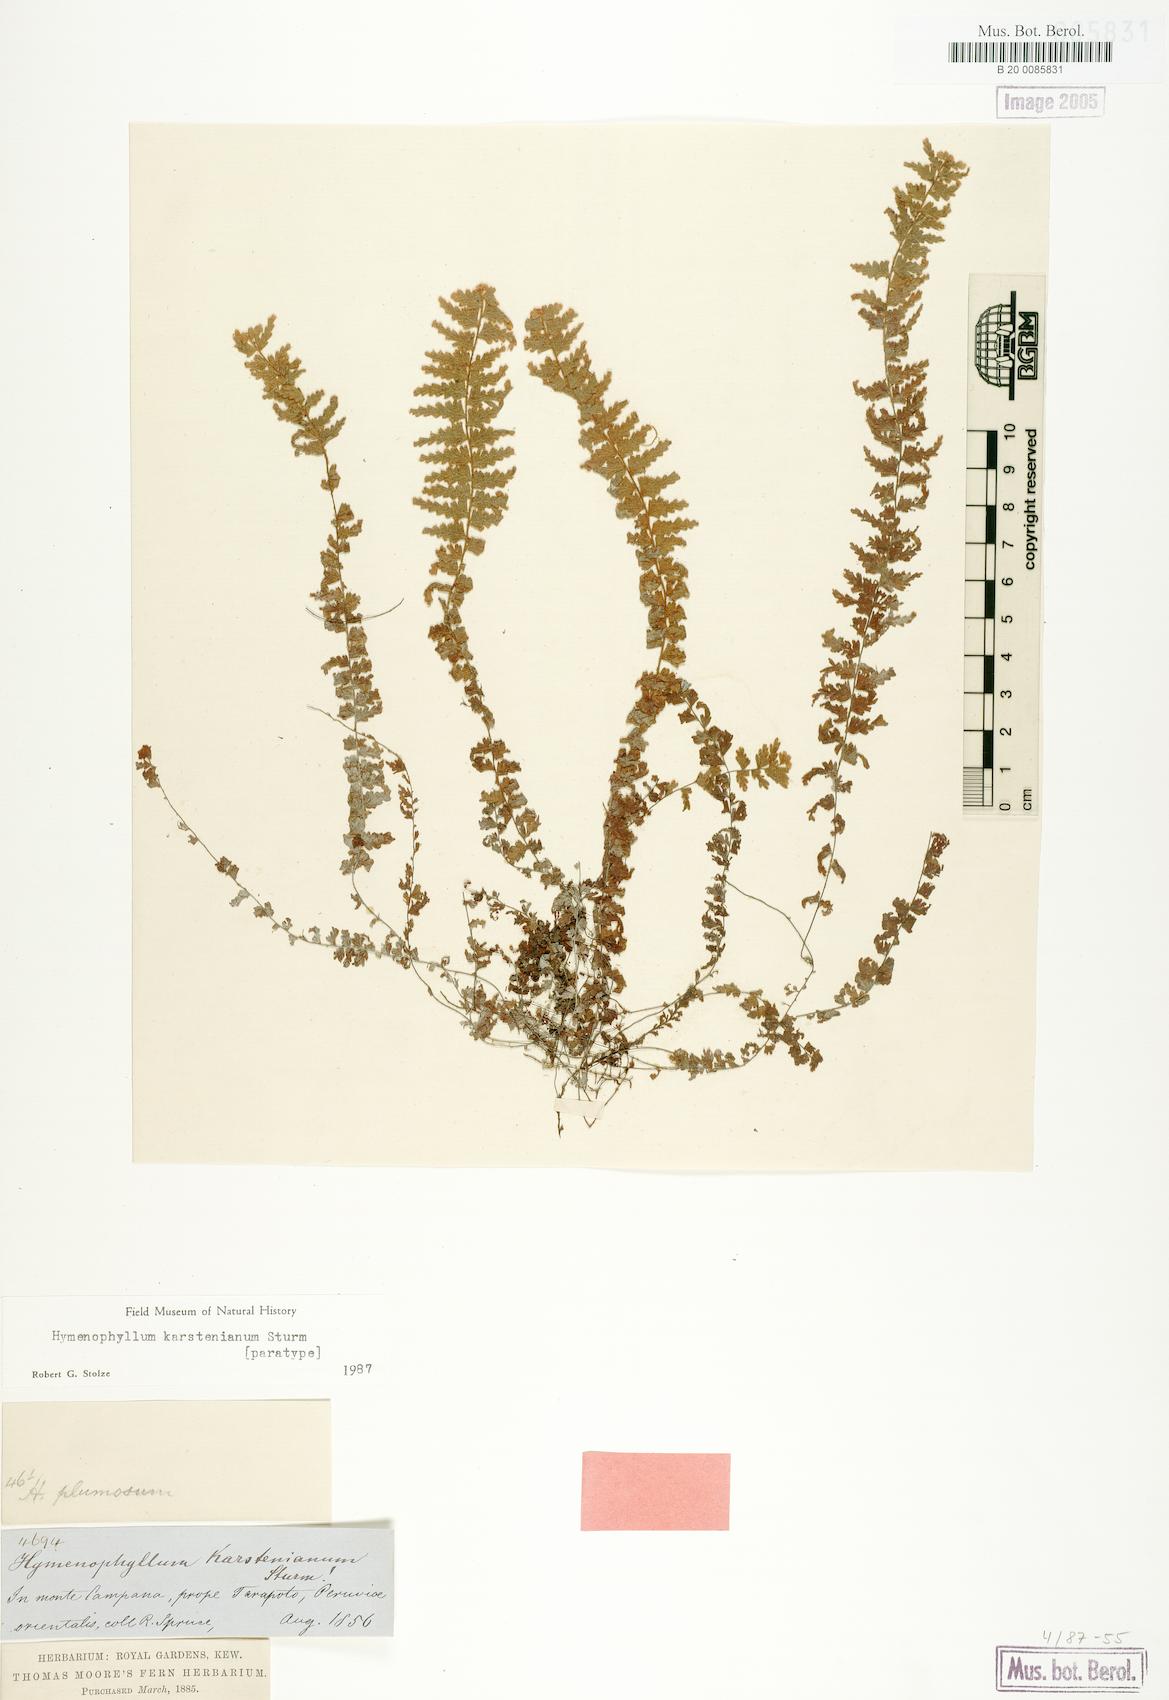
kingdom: Plantae
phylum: Tracheophyta
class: Polypodiopsida
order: Hymenophyllales
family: Hymenophyllaceae
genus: Hymenophyllum
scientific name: Hymenophyllum karstenianum
